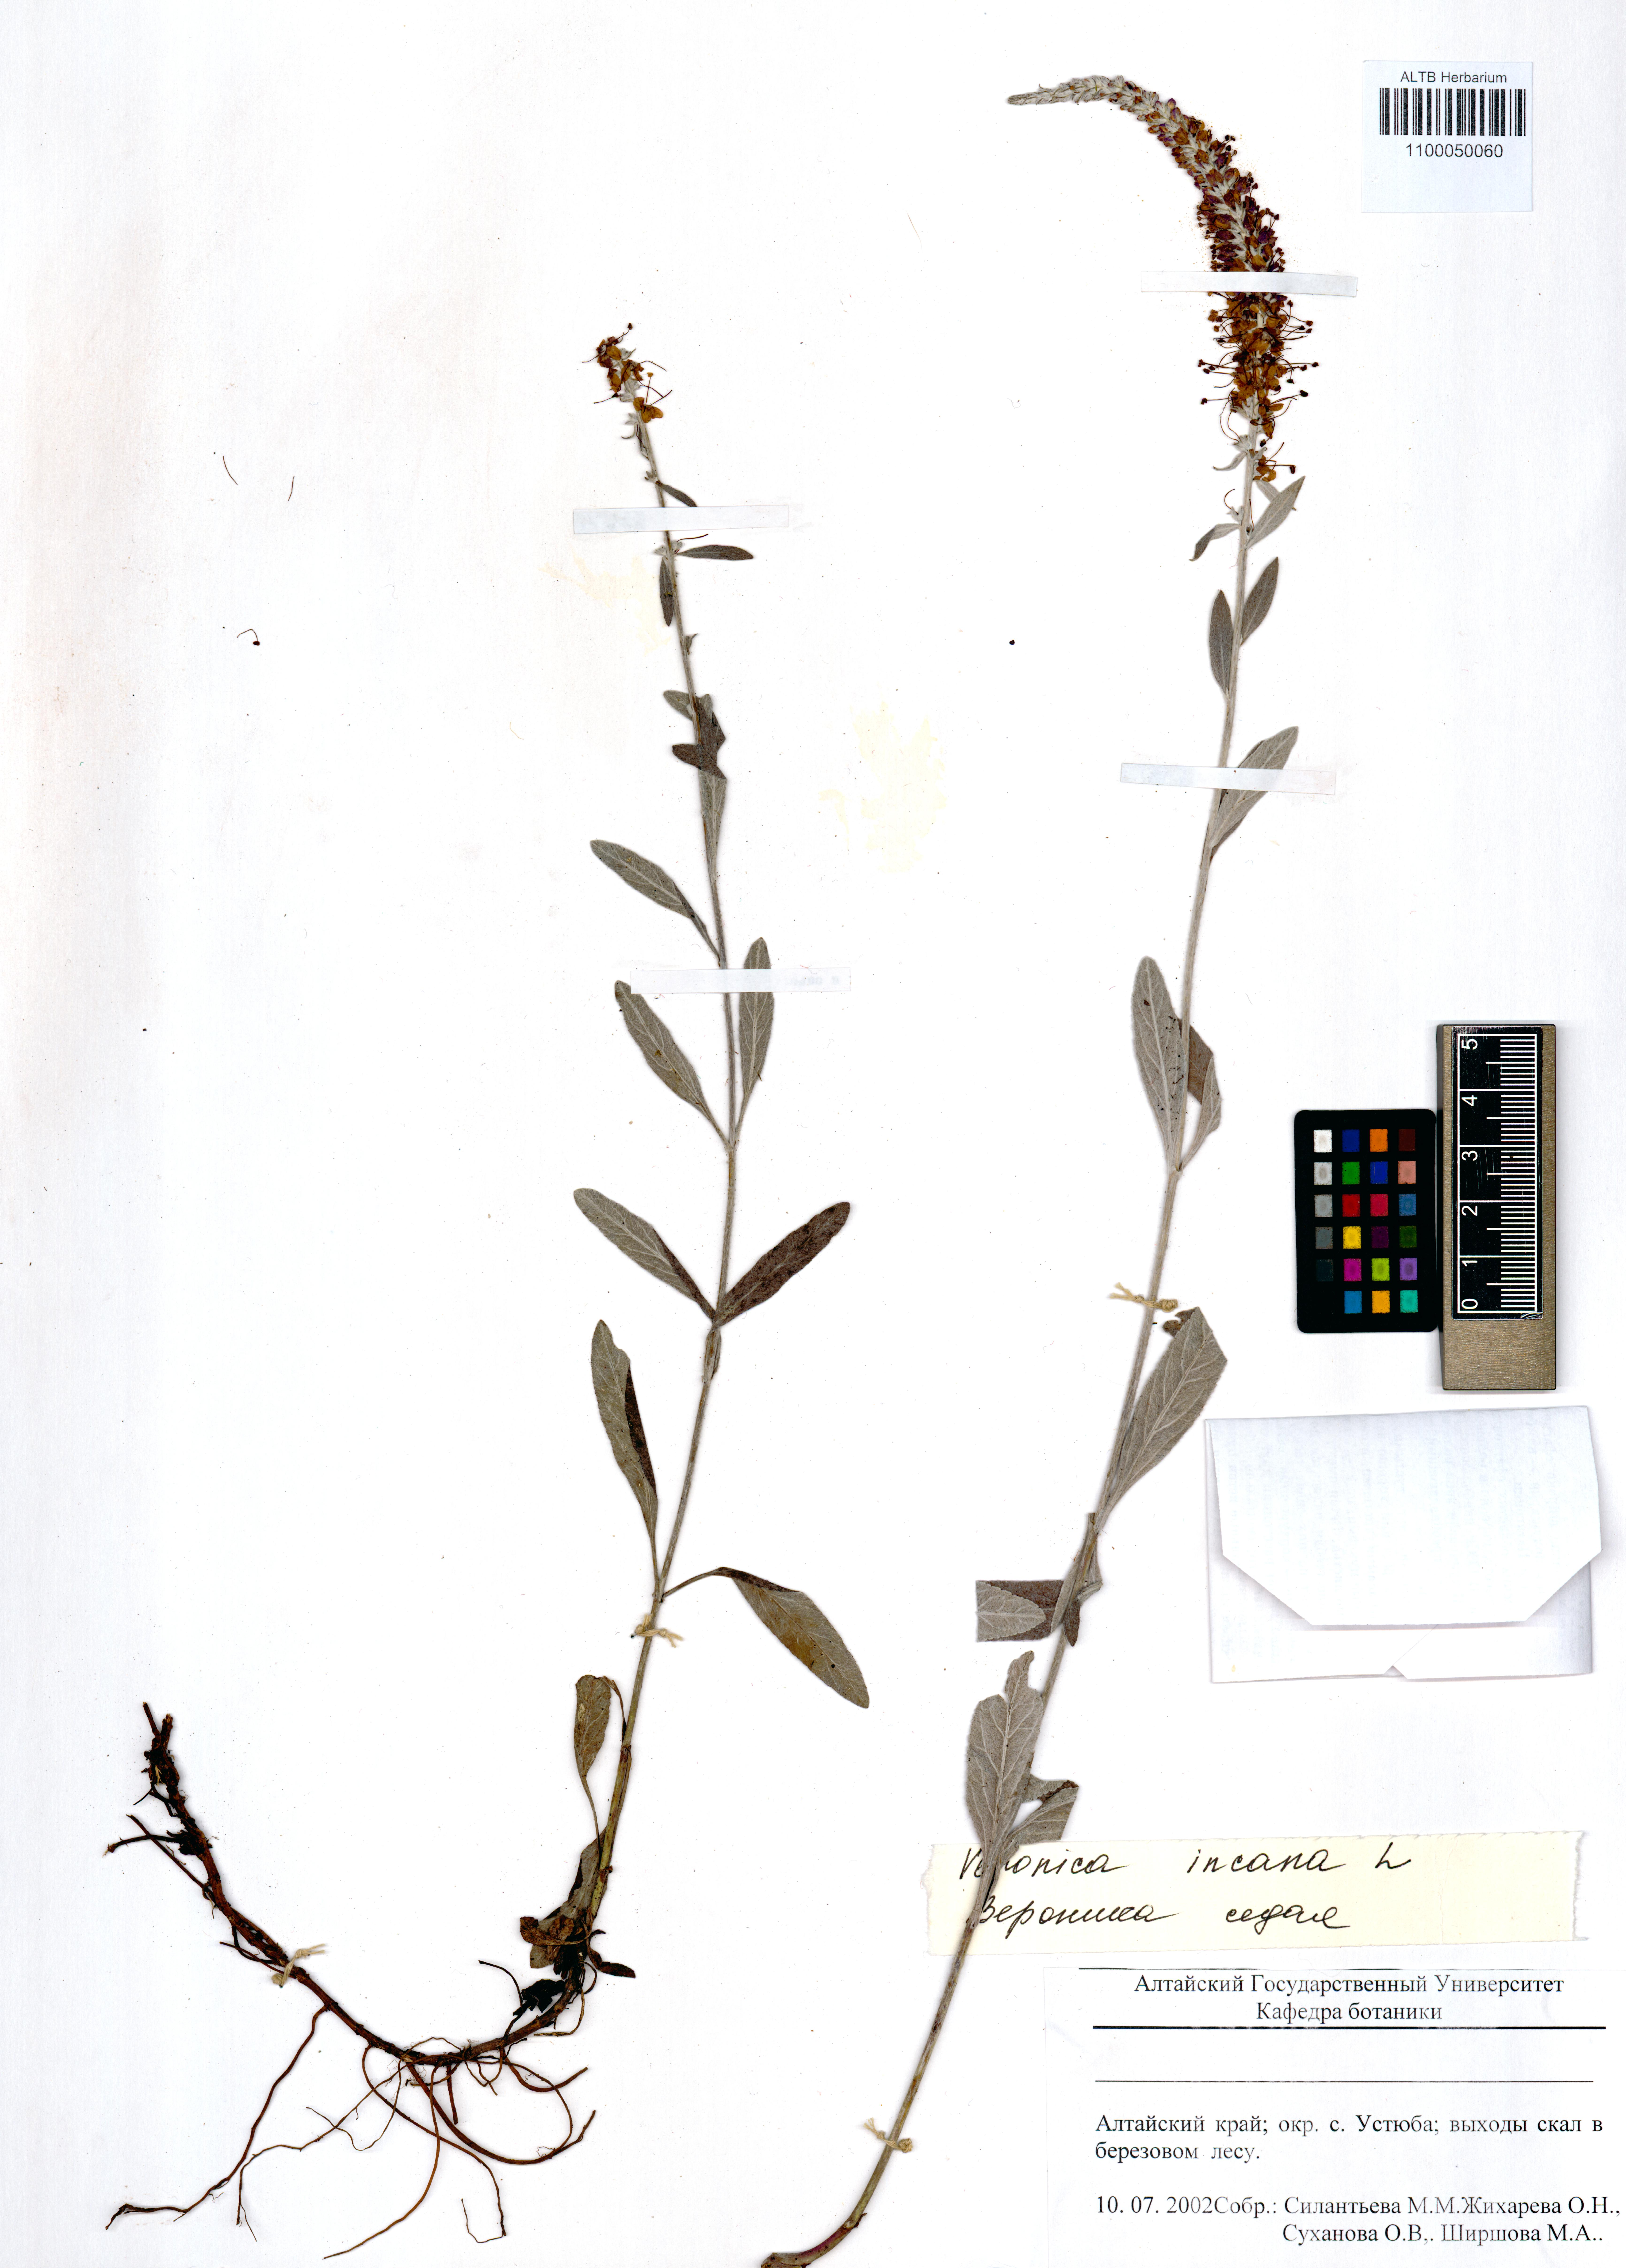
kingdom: Plantae
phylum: Tracheophyta
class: Magnoliopsida
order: Lamiales
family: Plantaginaceae
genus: Veronica
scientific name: Veronica incana
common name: Silver speedwell
